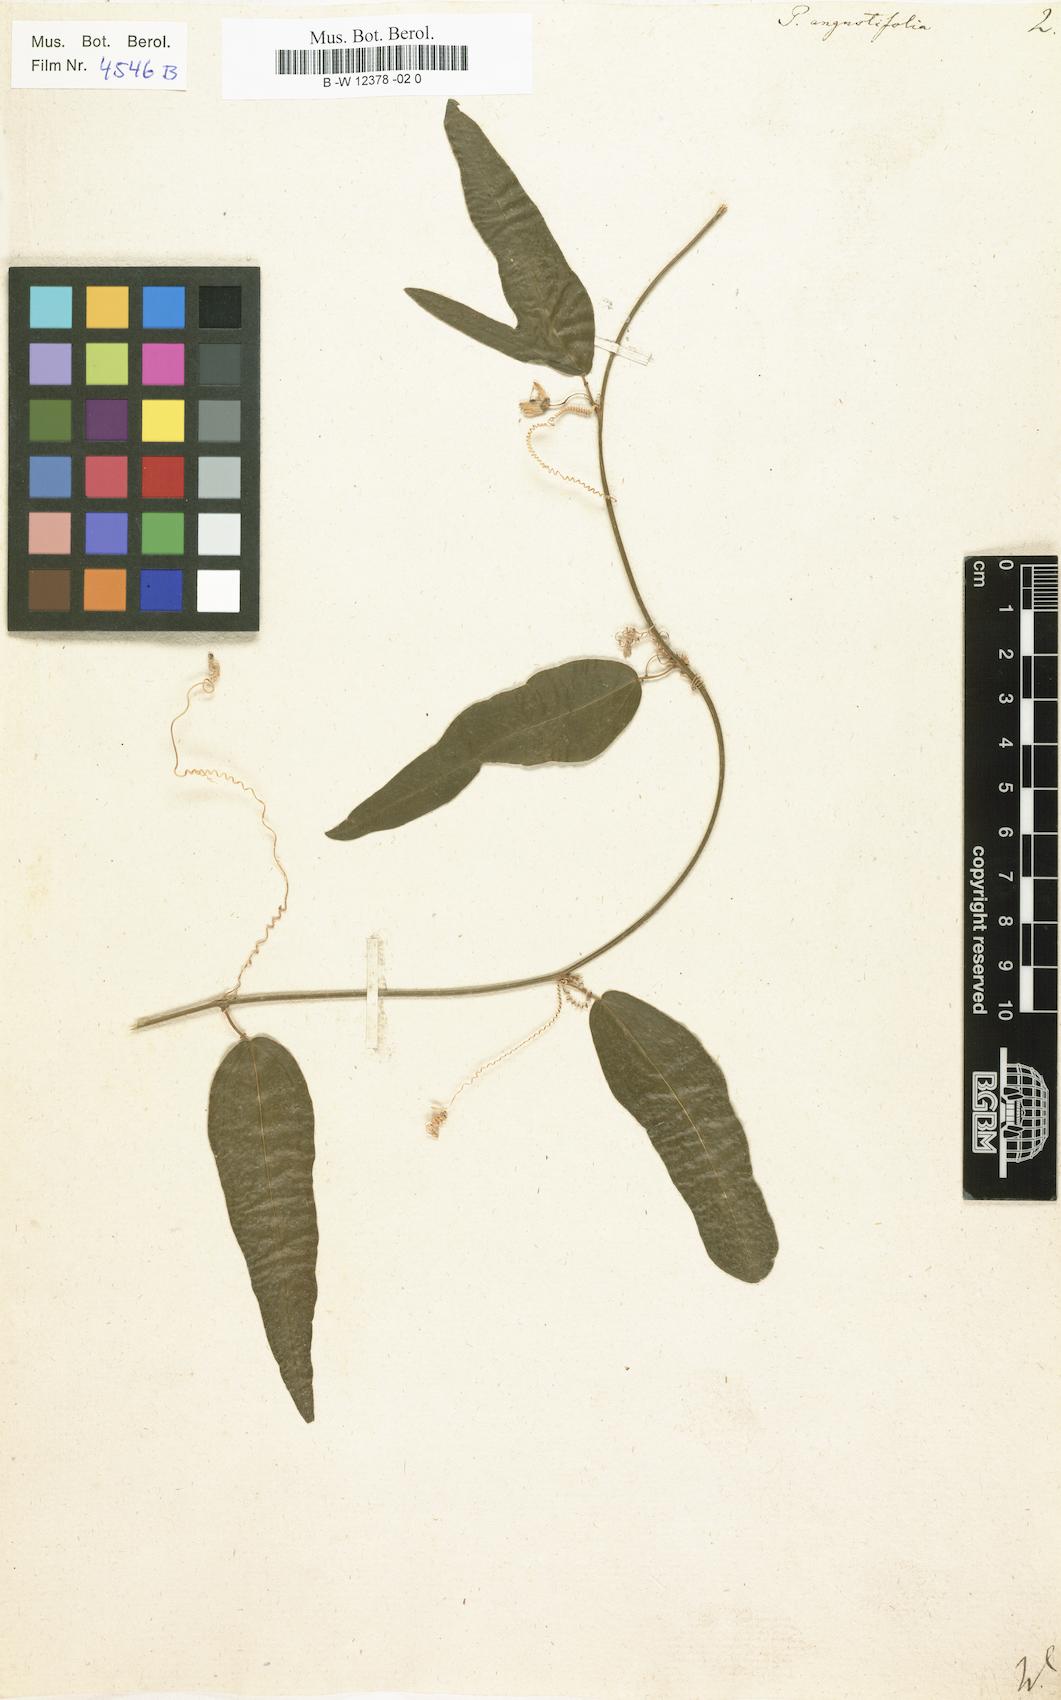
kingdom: Plantae
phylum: Tracheophyta
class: Magnoliopsida
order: Malpighiales
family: Passifloraceae
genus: Passiflora
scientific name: Passiflora suberosa
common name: Wild passionfruit
